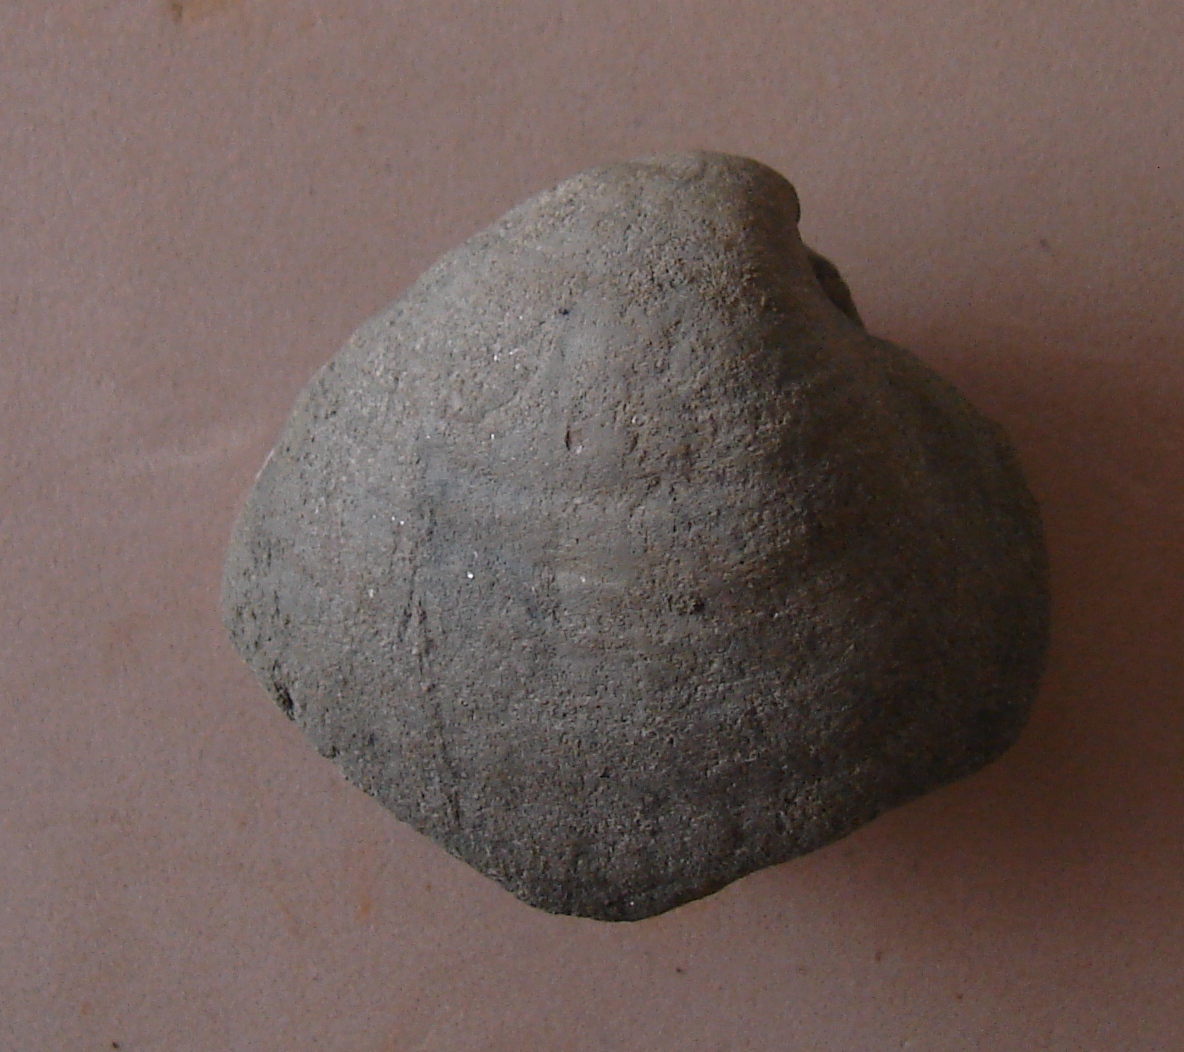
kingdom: Animalia
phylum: Mollusca
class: Bivalvia
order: Myida
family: Ceratomyidae
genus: Gresslya
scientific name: Gresslya
